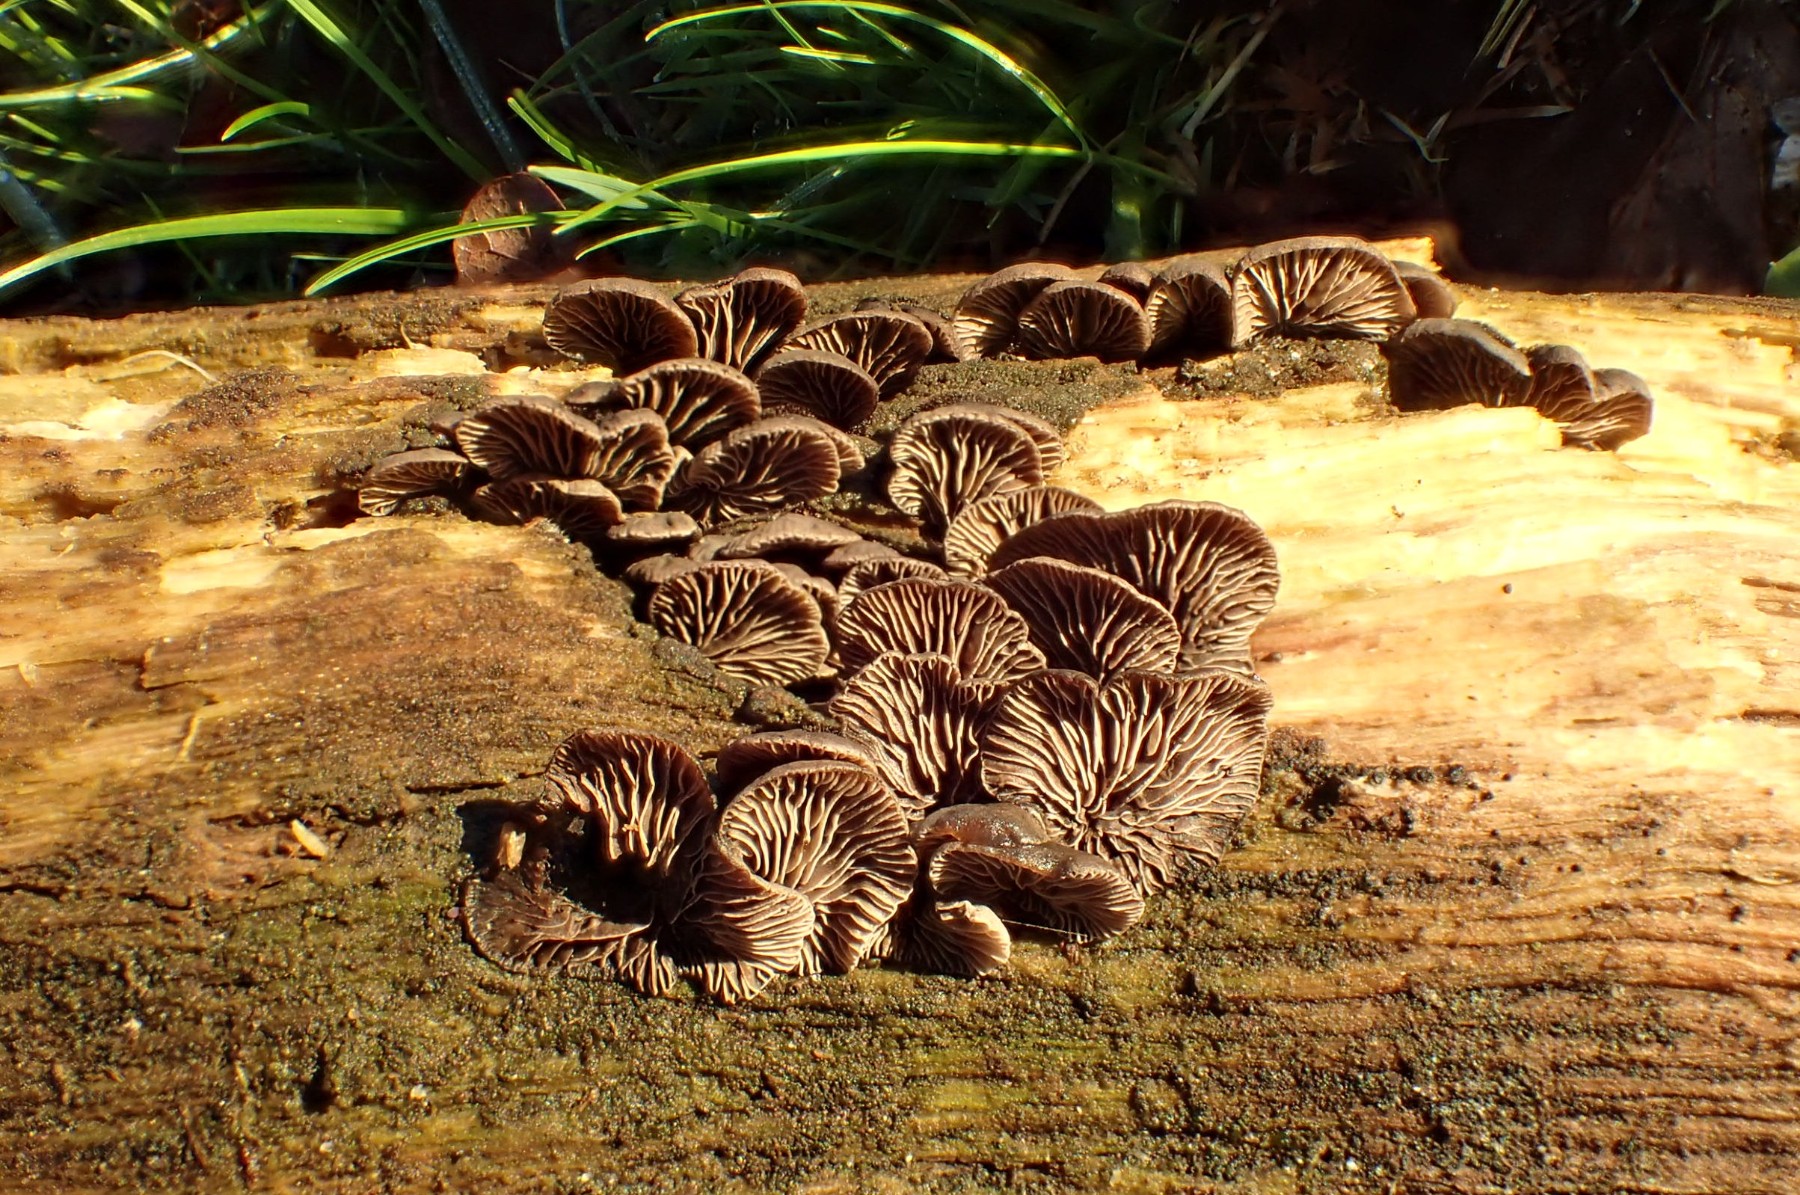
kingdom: Fungi
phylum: Basidiomycota
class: Agaricomycetes
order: Agaricales
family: Pleurotaceae
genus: Resupinatus
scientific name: Resupinatus trichotis
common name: mørkfiltet barkhat
